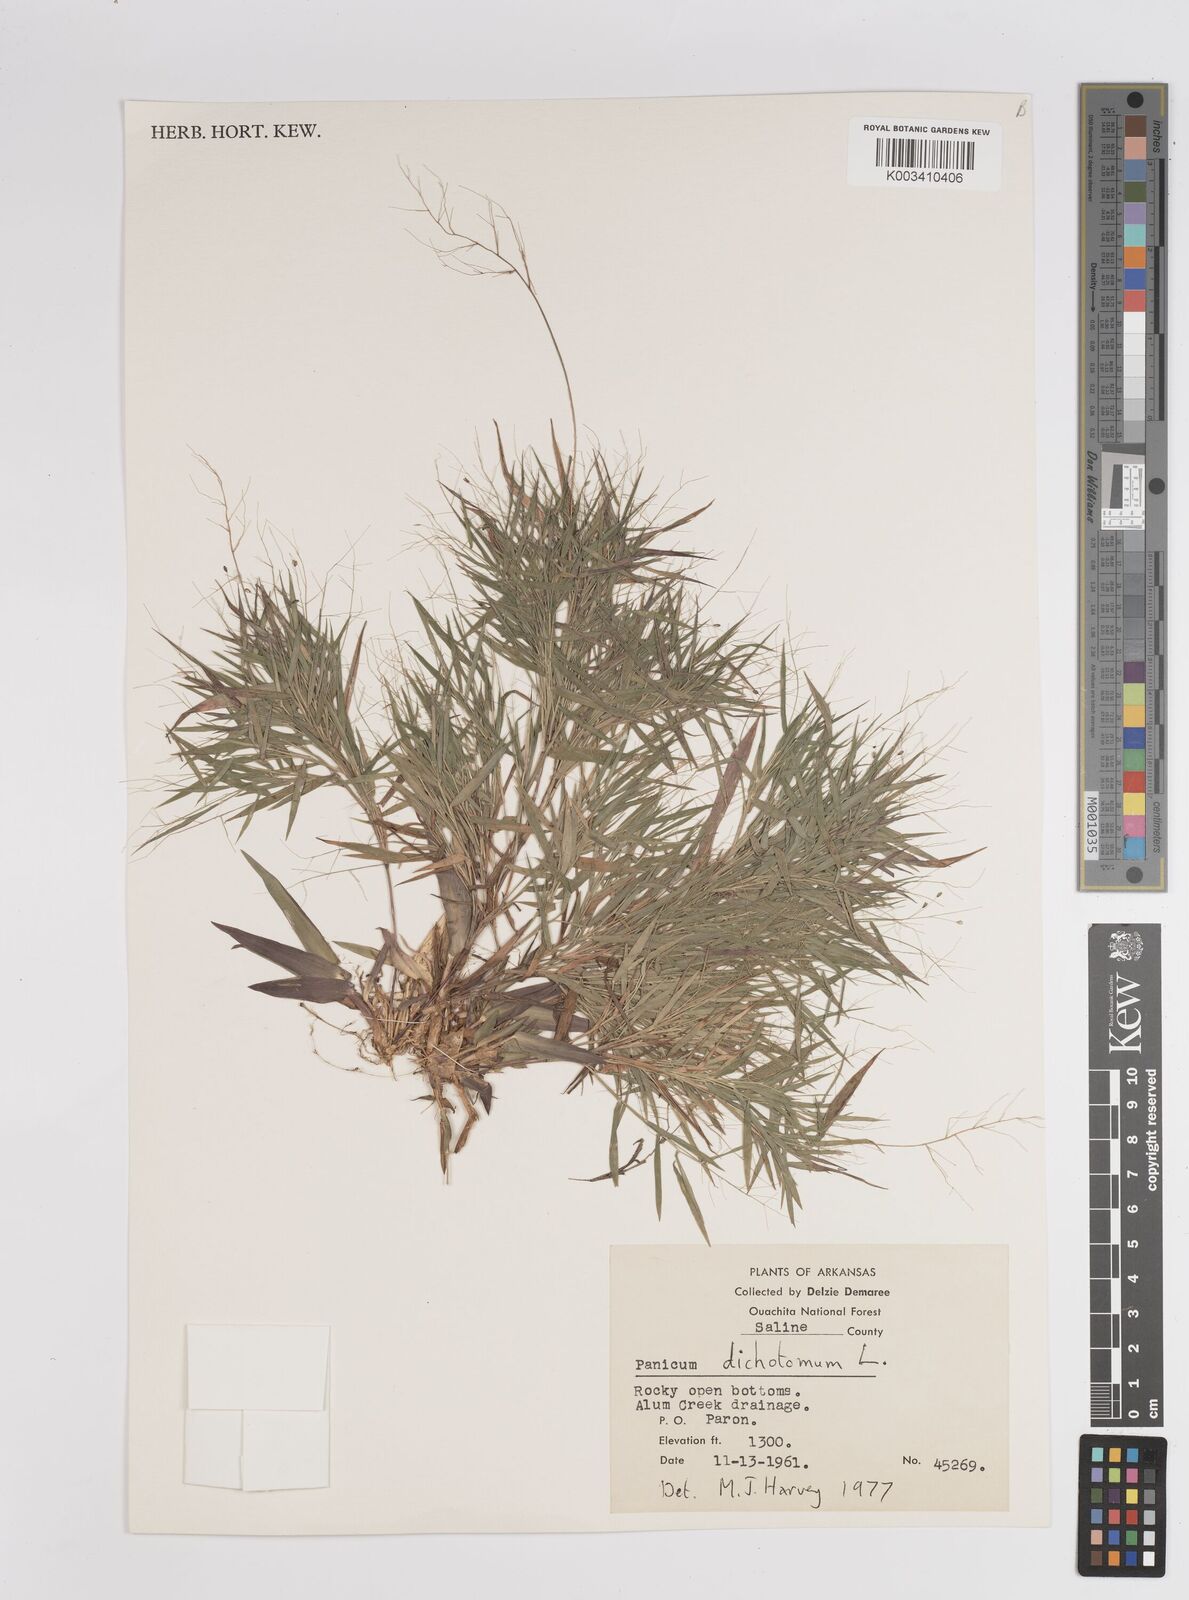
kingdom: Plantae
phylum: Tracheophyta
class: Liliopsida
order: Poales
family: Poaceae
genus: Dichanthelium
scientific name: Dichanthelium dichotomum
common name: Cypress panicgrass
